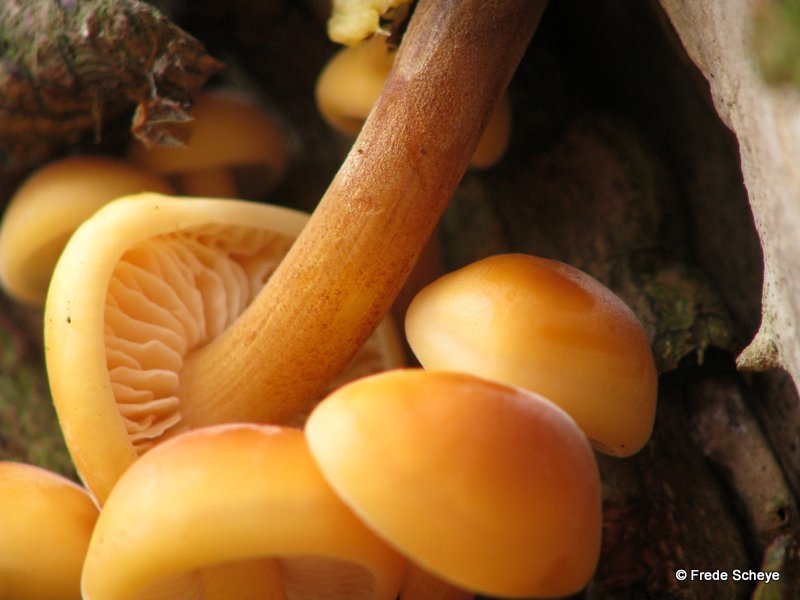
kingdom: Fungi
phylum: Basidiomycota
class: Agaricomycetes
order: Agaricales
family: Physalacriaceae
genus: Flammulina
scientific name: Flammulina populicola
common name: poppel-fløjlsfod
